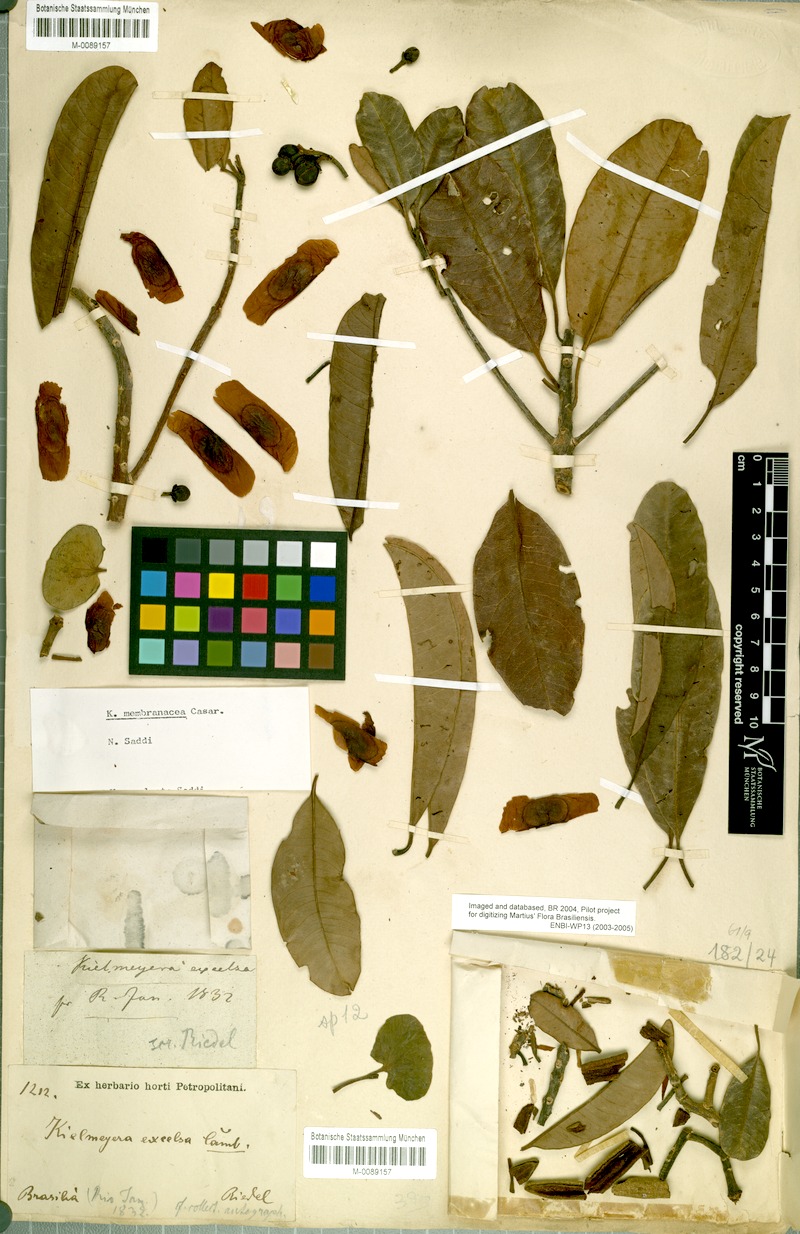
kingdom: Plantae
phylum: Tracheophyta
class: Magnoliopsida
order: Malpighiales
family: Calophyllaceae
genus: Kielmeyera
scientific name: Kielmeyera membranacea
